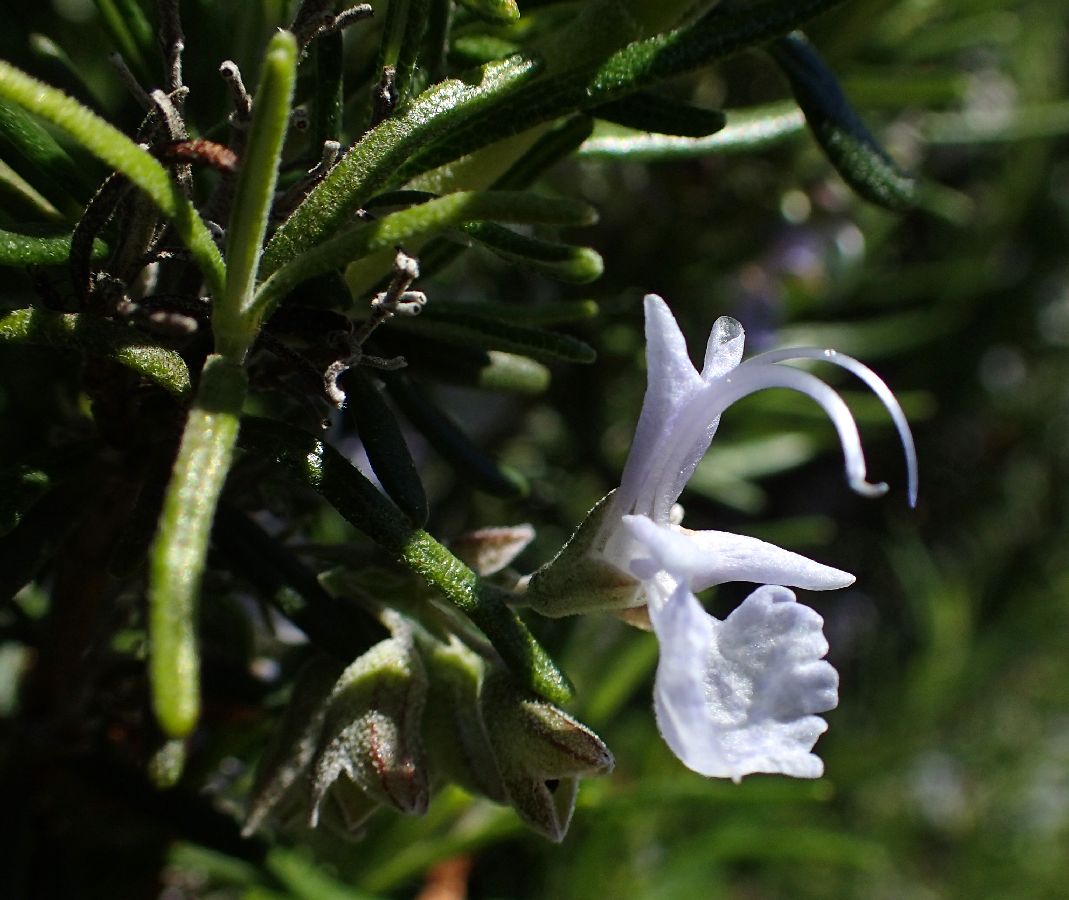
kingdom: Plantae
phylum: Tracheophyta
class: Magnoliopsida
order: Lamiales
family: Lamiaceae
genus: Salvia
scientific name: Salvia rosmarinus
